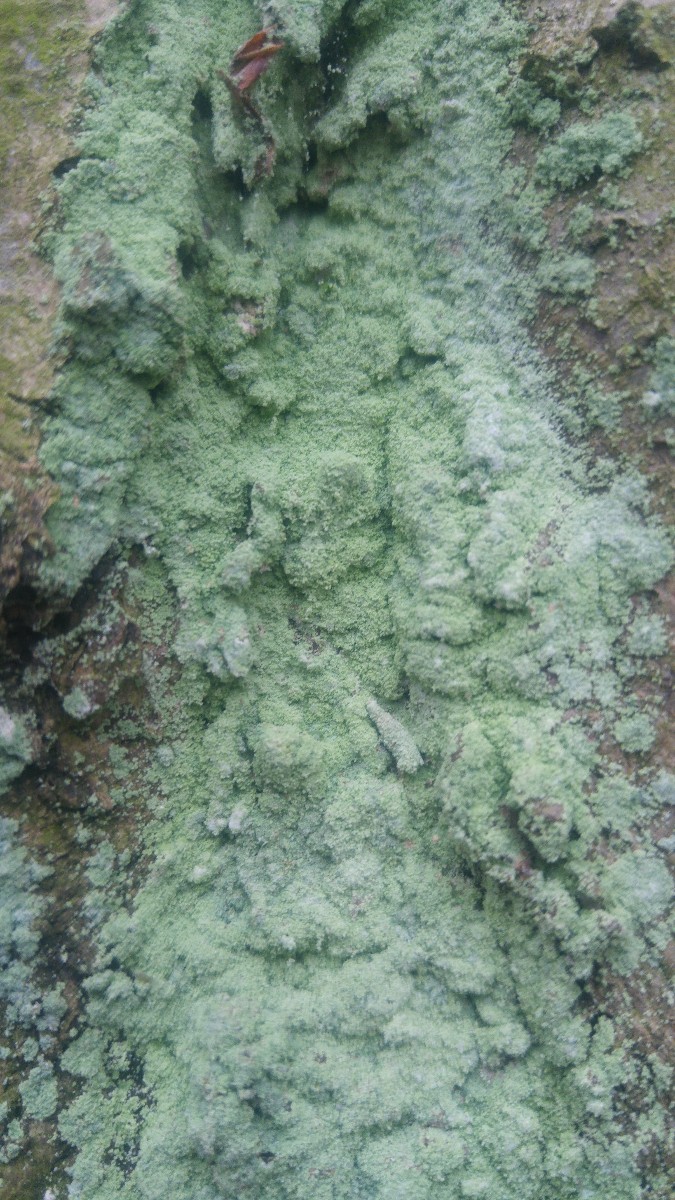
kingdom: Fungi
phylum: Ascomycota
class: Lecanoromycetes
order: Lecanorales
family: Stereocaulaceae
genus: Lepraria
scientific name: Lepraria
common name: støvlav
